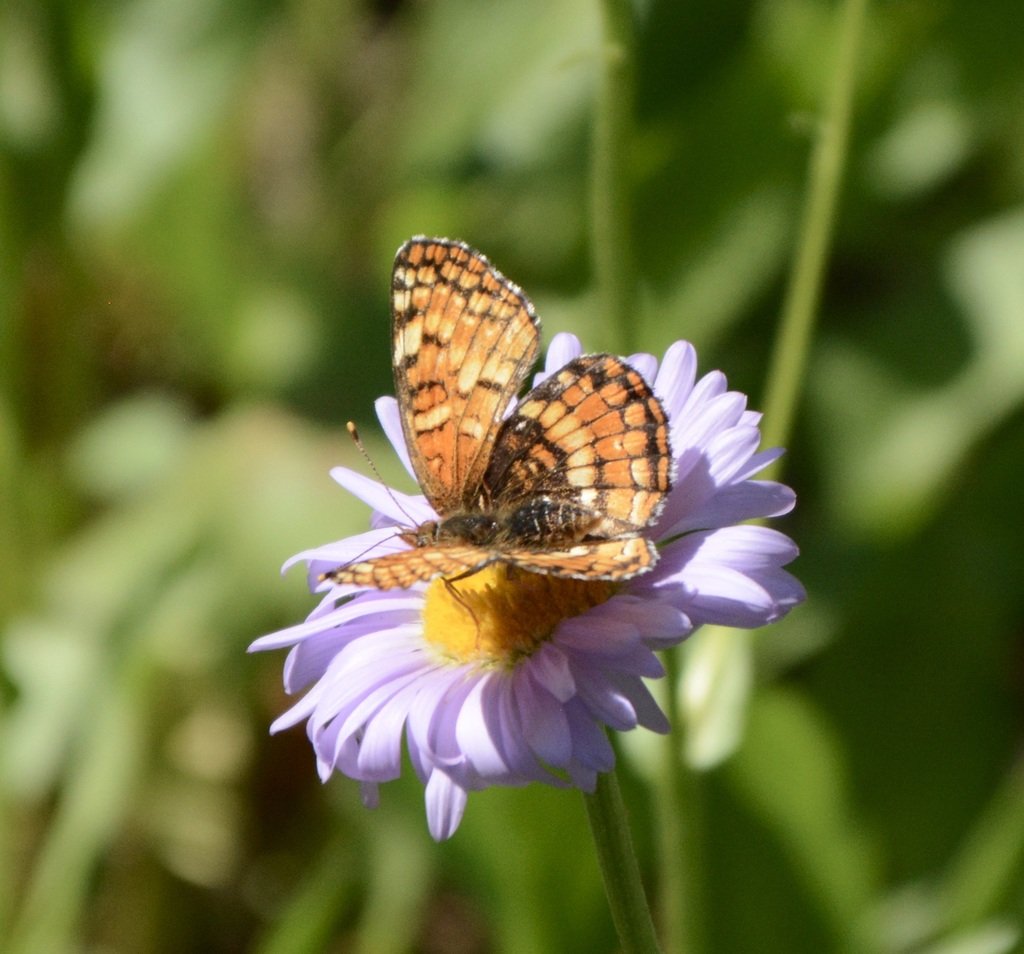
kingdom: Animalia
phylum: Arthropoda
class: Insecta
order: Lepidoptera
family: Nymphalidae
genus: Chlosyne
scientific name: Chlosyne palla
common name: Northern Checkerspot
